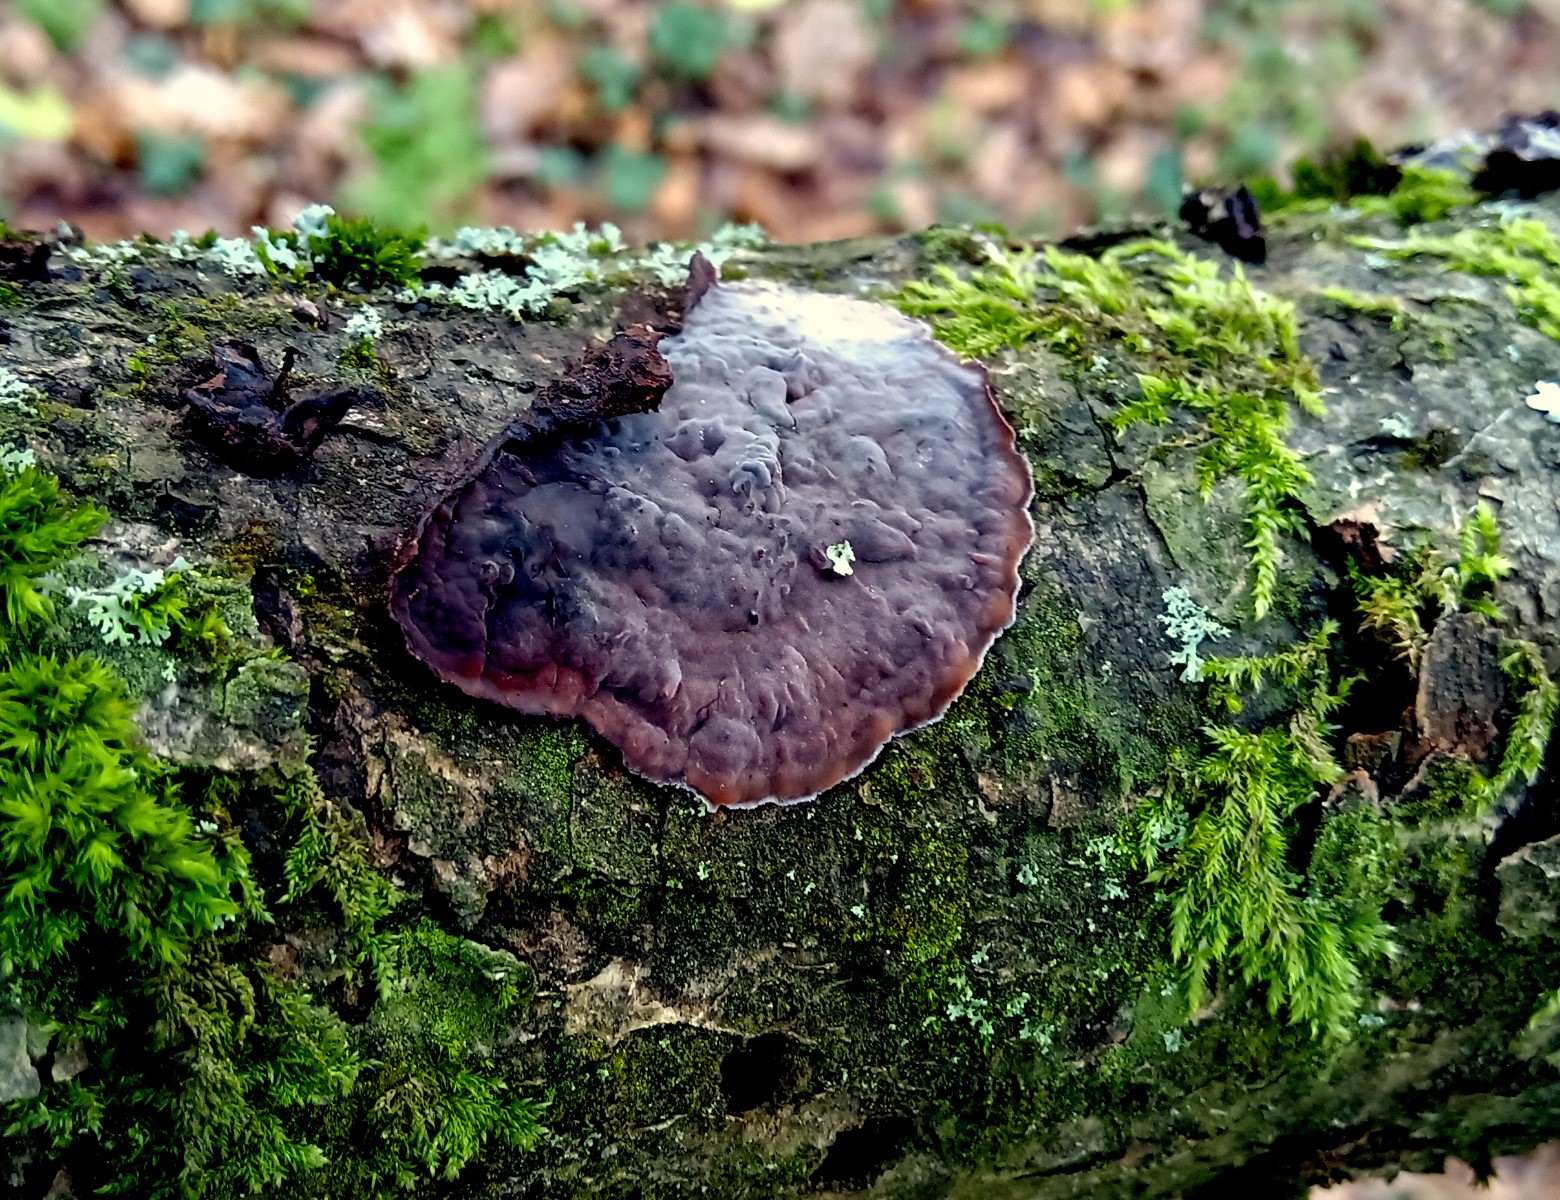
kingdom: Fungi
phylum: Basidiomycota
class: Agaricomycetes
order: Russulales
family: Peniophoraceae
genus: Peniophora
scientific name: Peniophora quercina
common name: ege-voksskind
